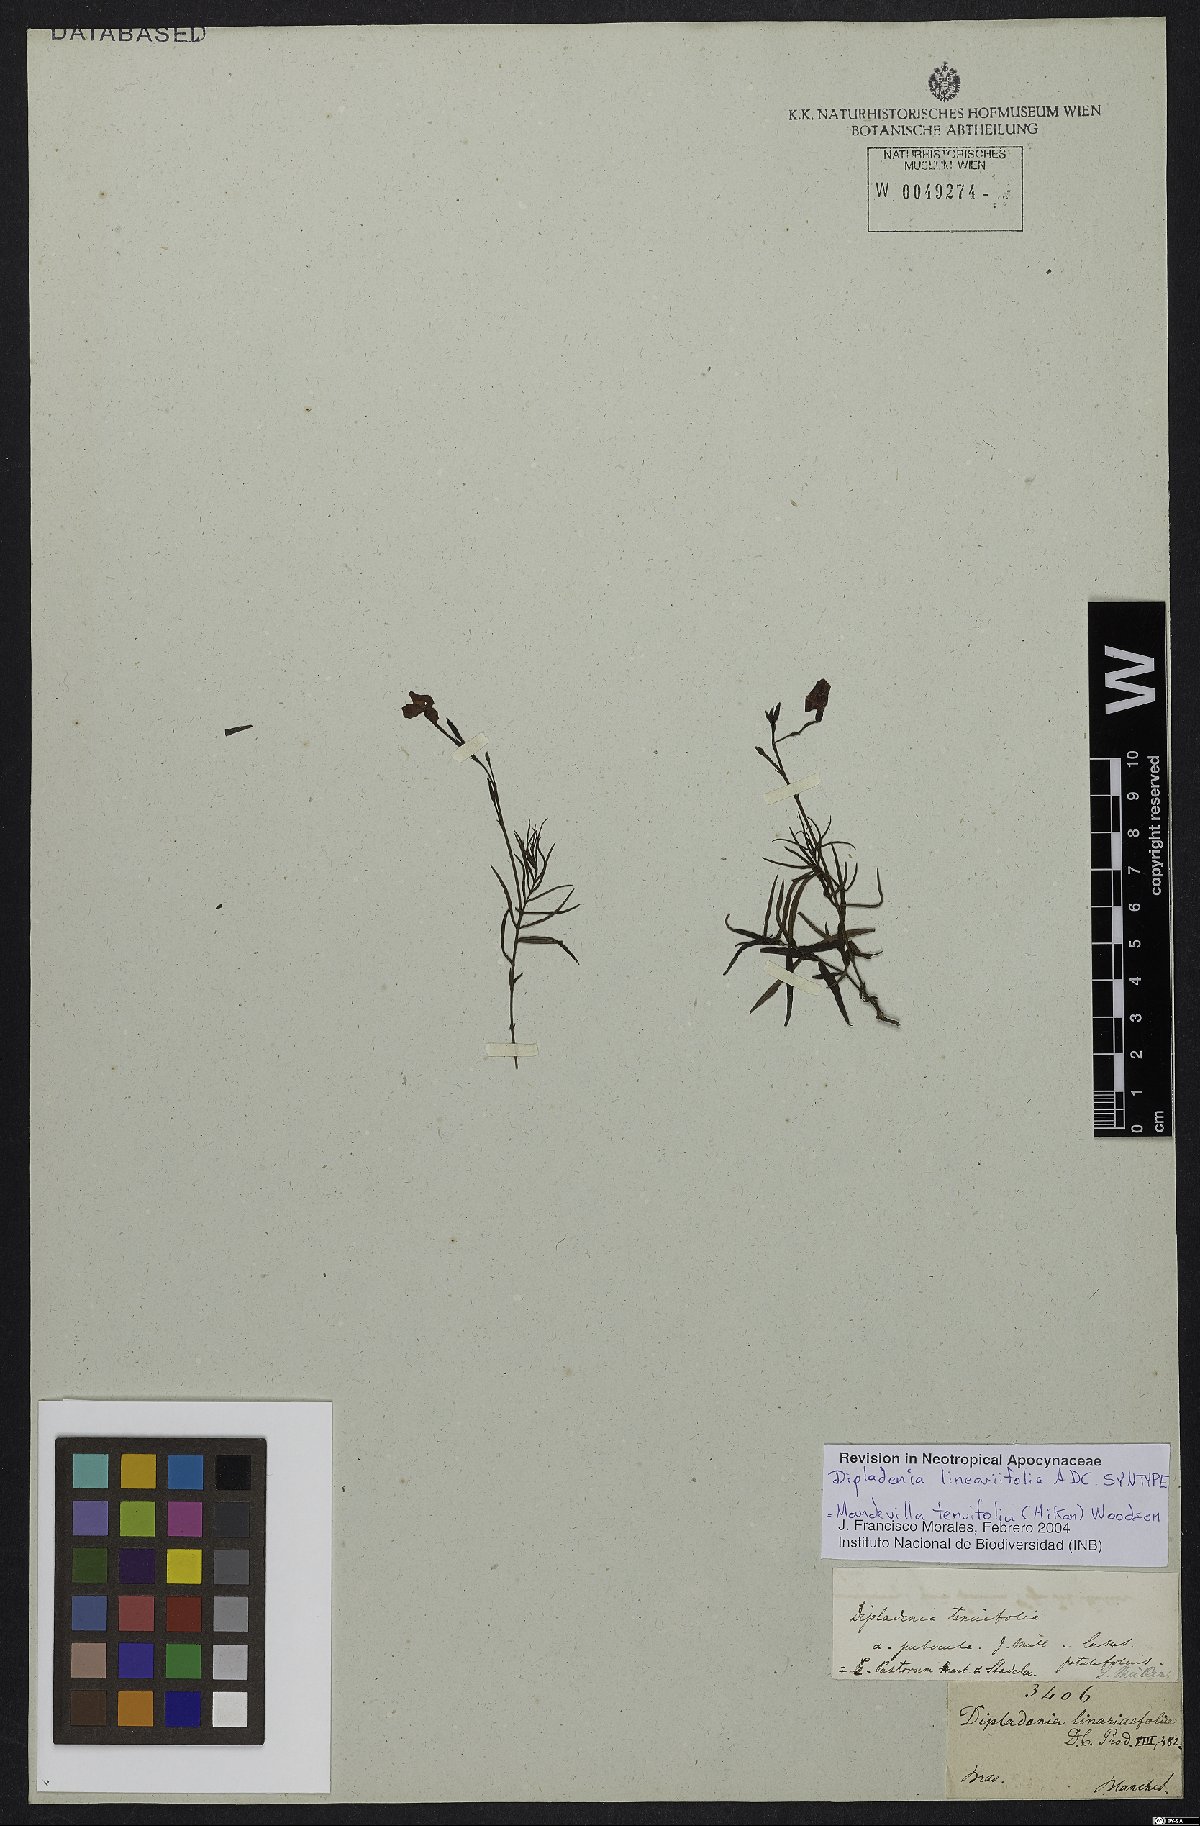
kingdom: Plantae
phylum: Tracheophyta
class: Magnoliopsida
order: Gentianales
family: Apocynaceae
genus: Mandevilla
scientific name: Mandevilla tenuifolia
